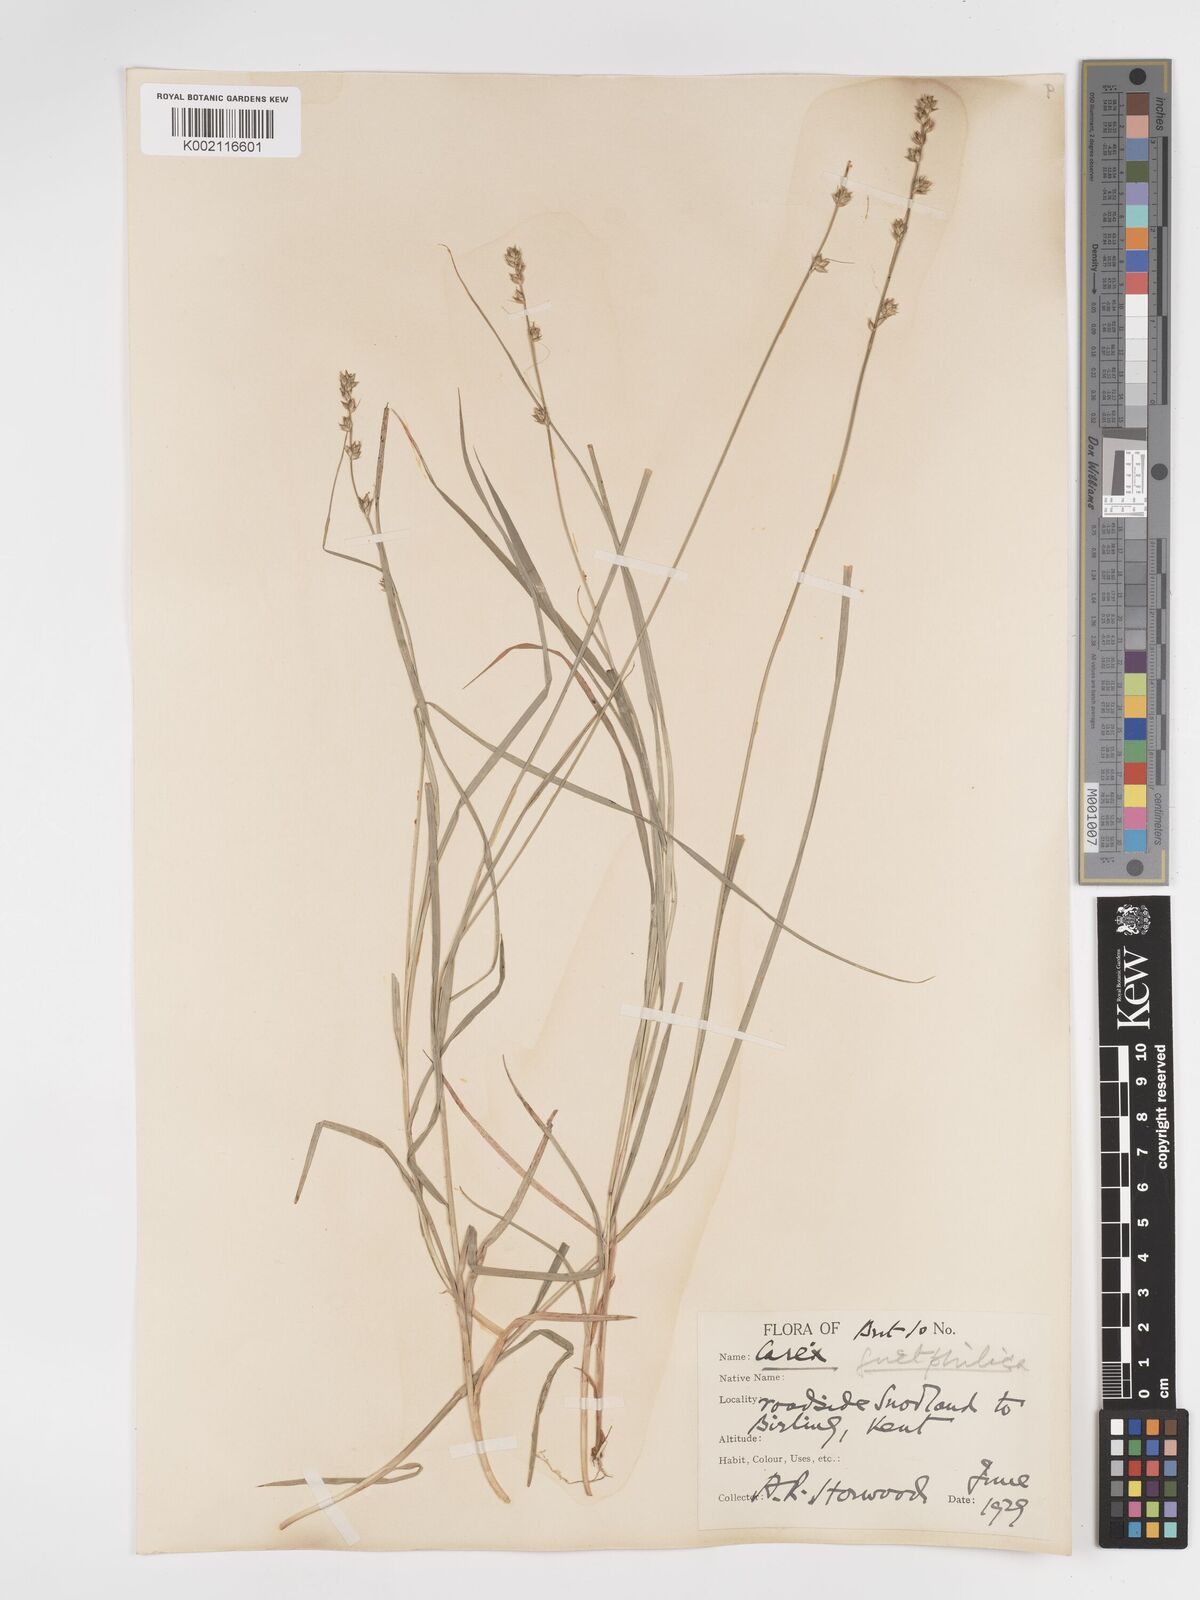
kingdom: Plantae
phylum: Tracheophyta
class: Liliopsida
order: Poales
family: Cyperaceae
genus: Carex
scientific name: Carex divulsa
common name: Grassland sedge
